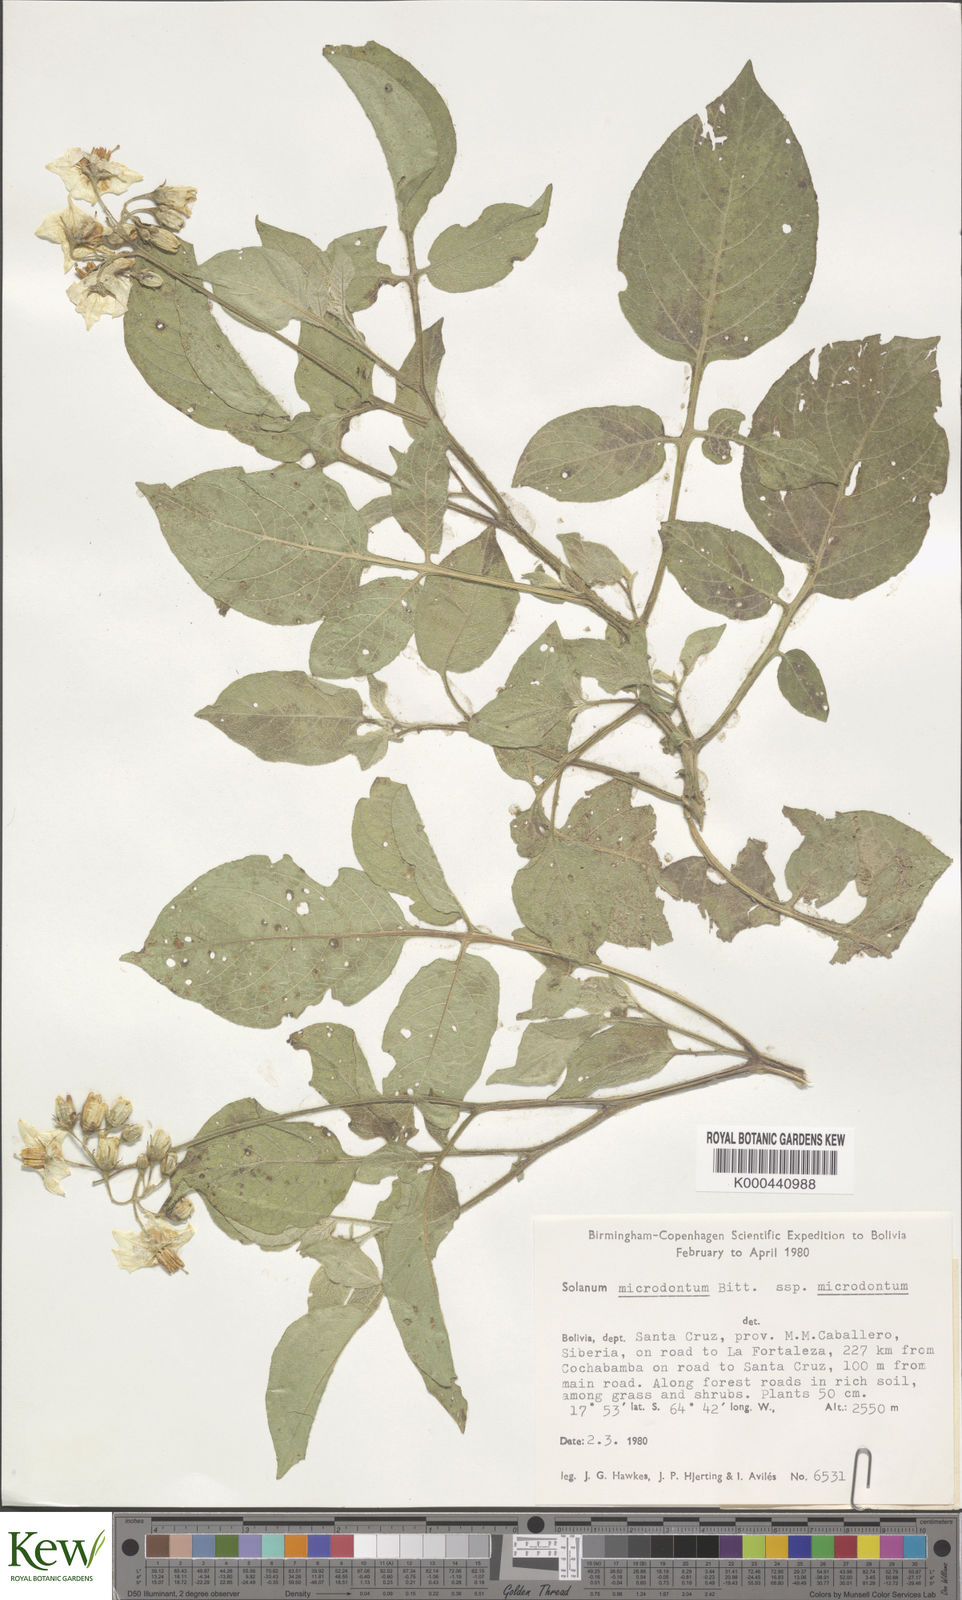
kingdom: Plantae
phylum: Tracheophyta
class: Magnoliopsida
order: Solanales
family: Solanaceae
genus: Solanum
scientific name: Solanum microdontum
